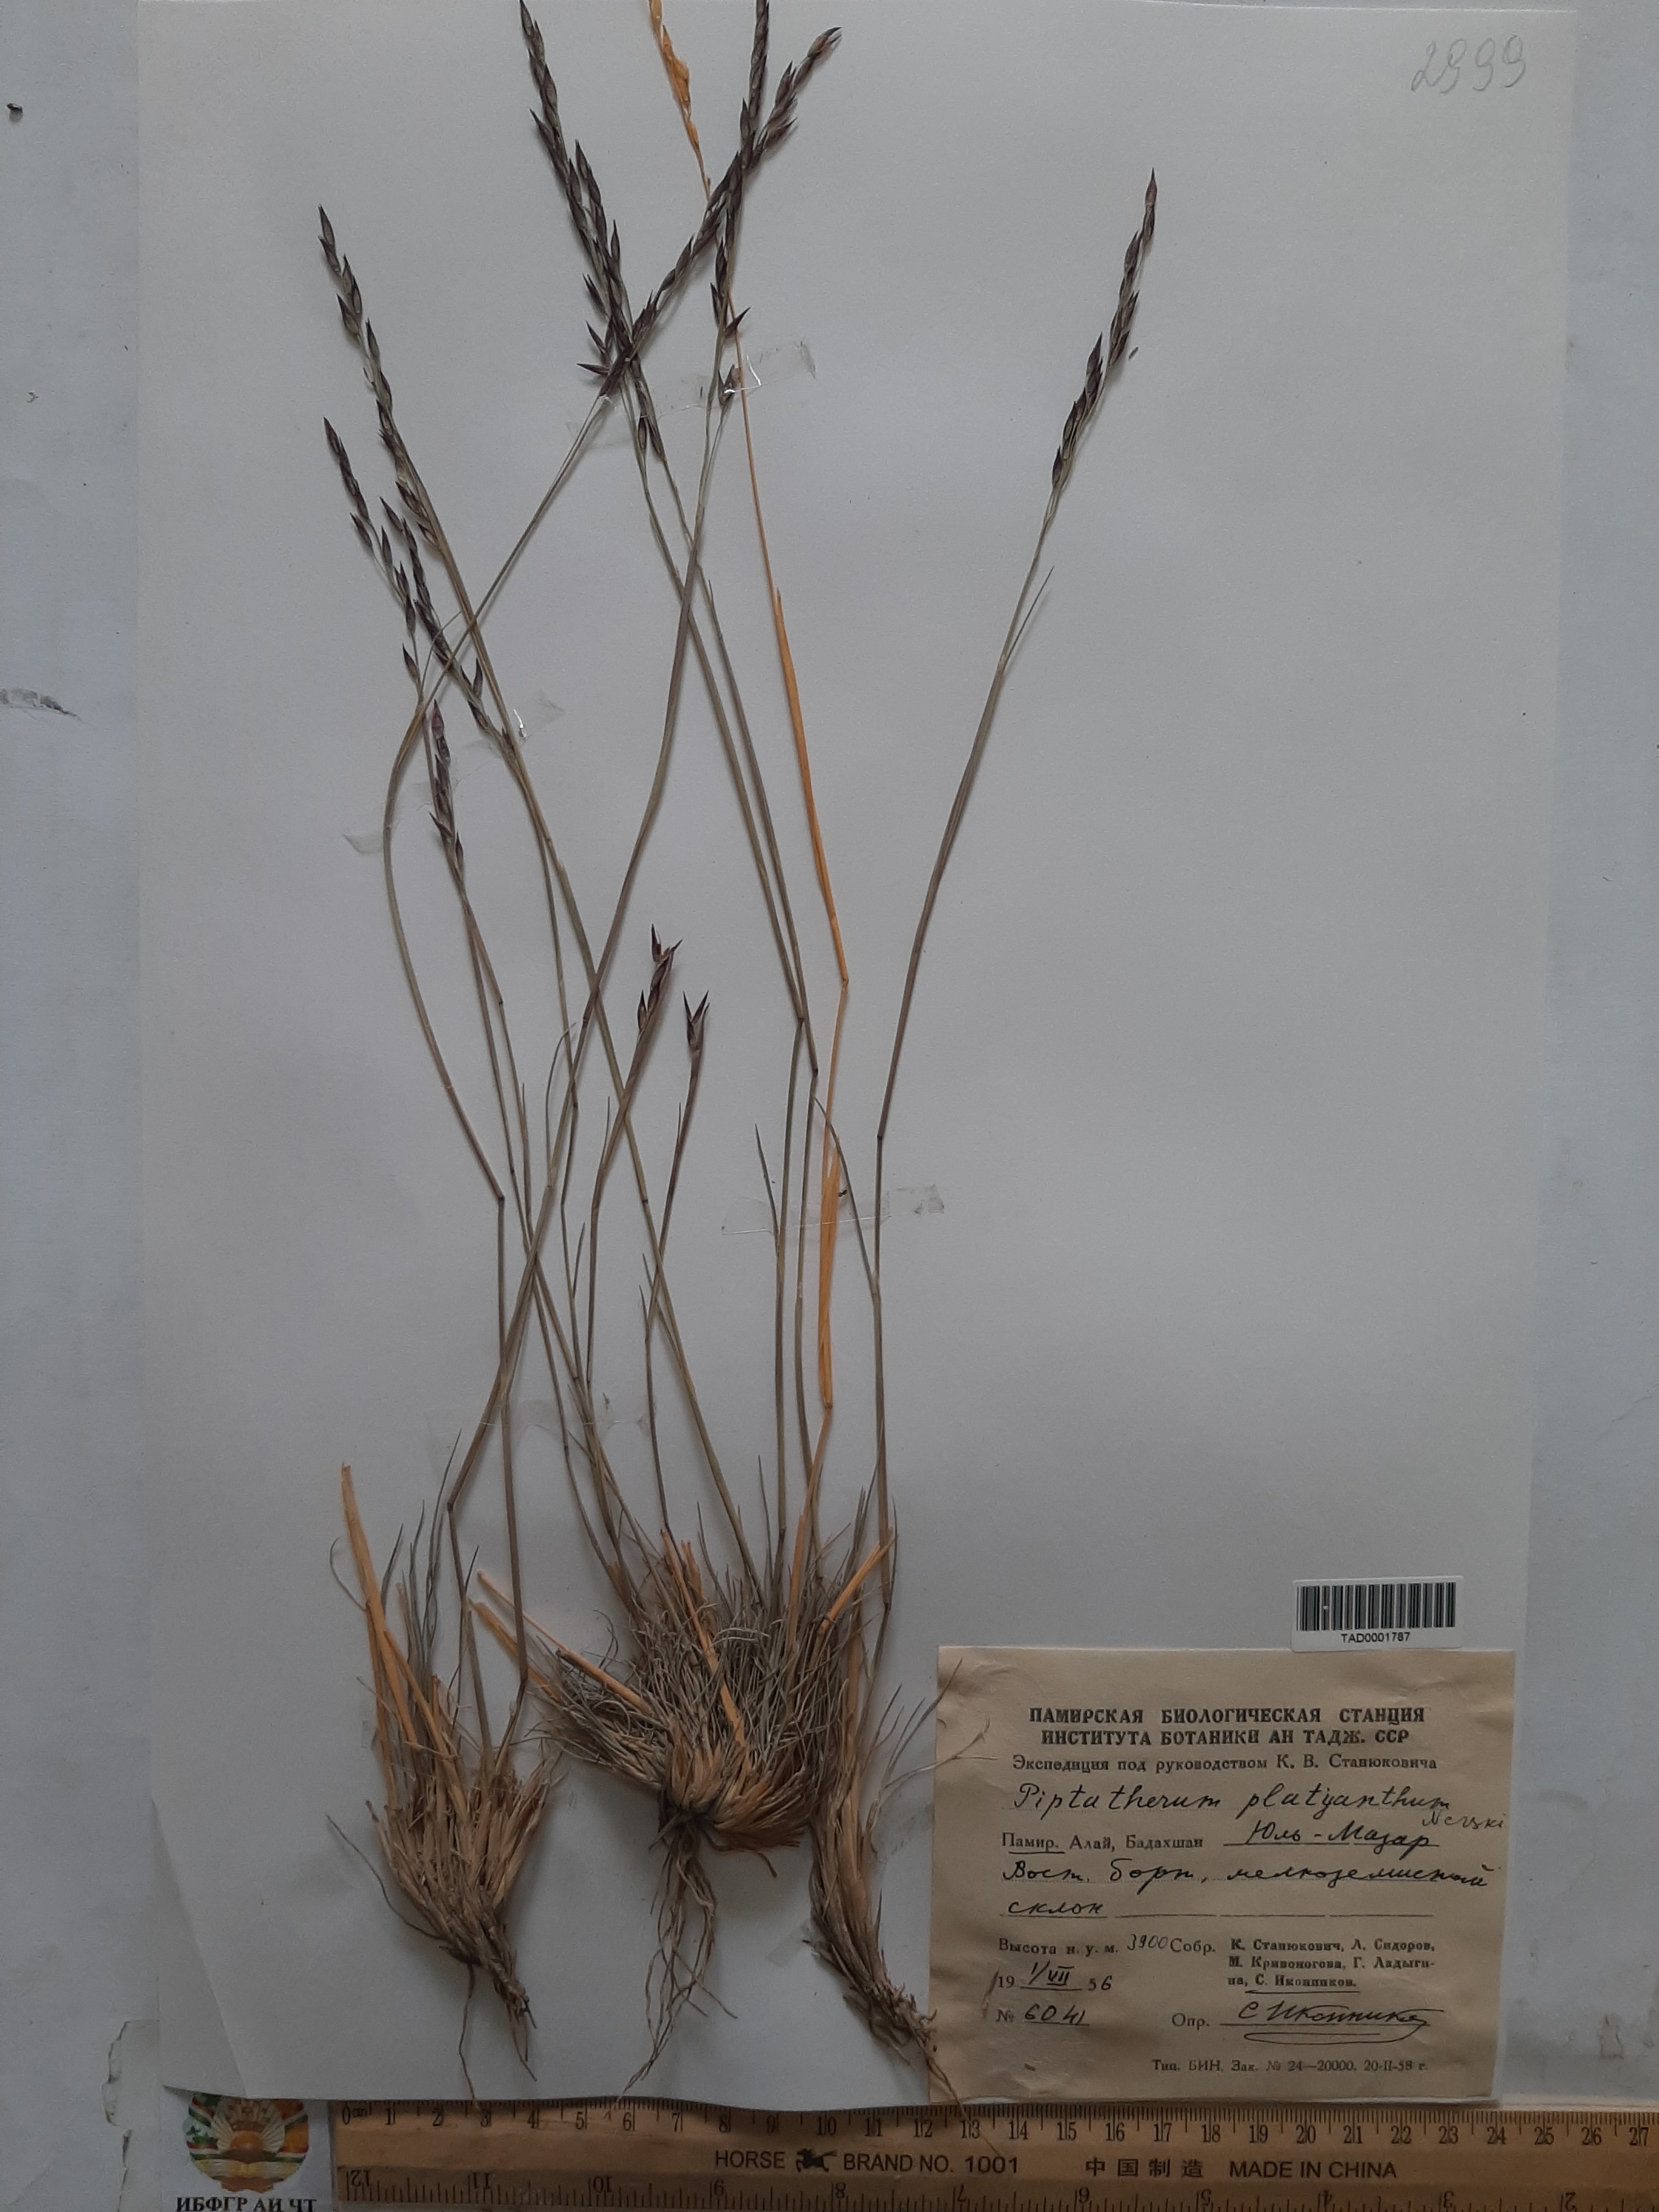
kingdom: Plantae
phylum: Tracheophyta
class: Liliopsida
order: Poales
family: Poaceae
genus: Piptatherum
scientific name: Piptatherum platyanthum
